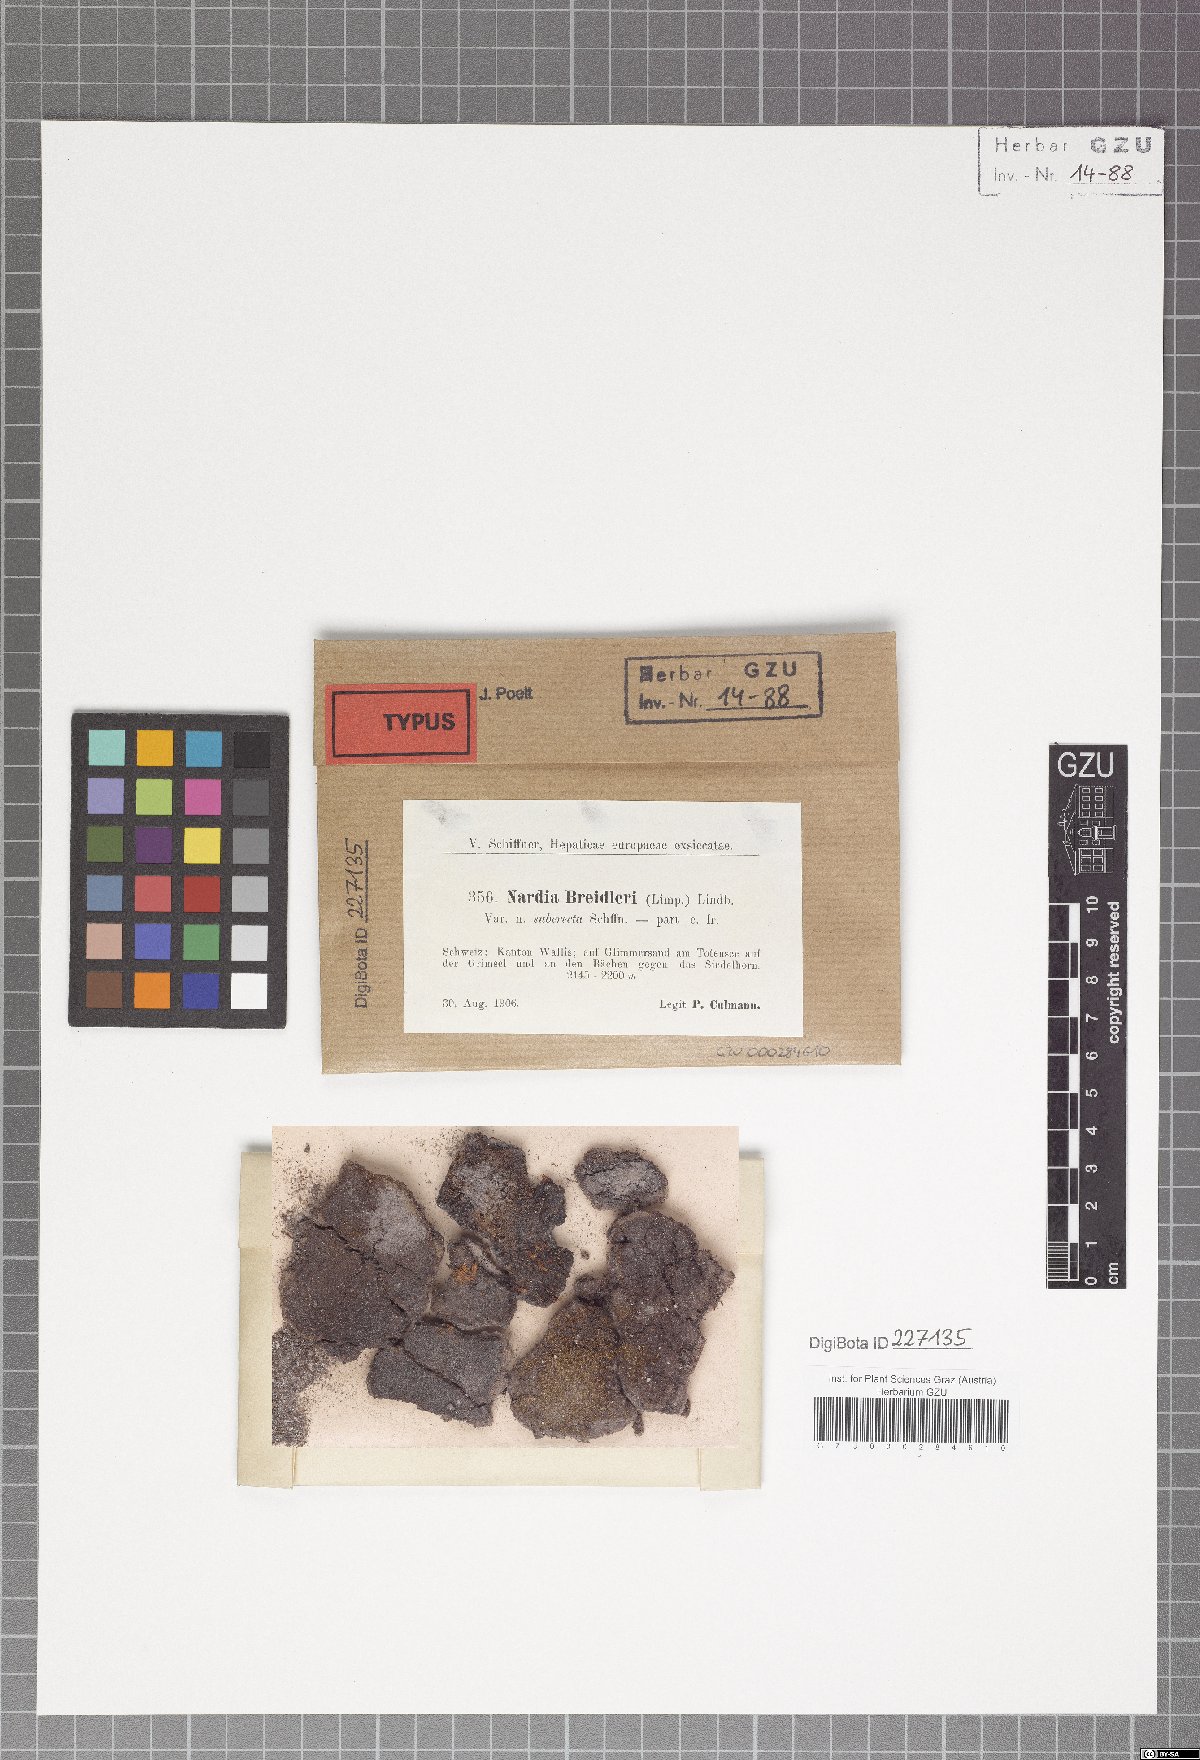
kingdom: Plantae
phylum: Marchantiophyta
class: Jungermanniopsida
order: Jungermanniales
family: Gymnomitriaceae
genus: Nardia
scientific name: Nardia breidleri
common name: Book flapwort
